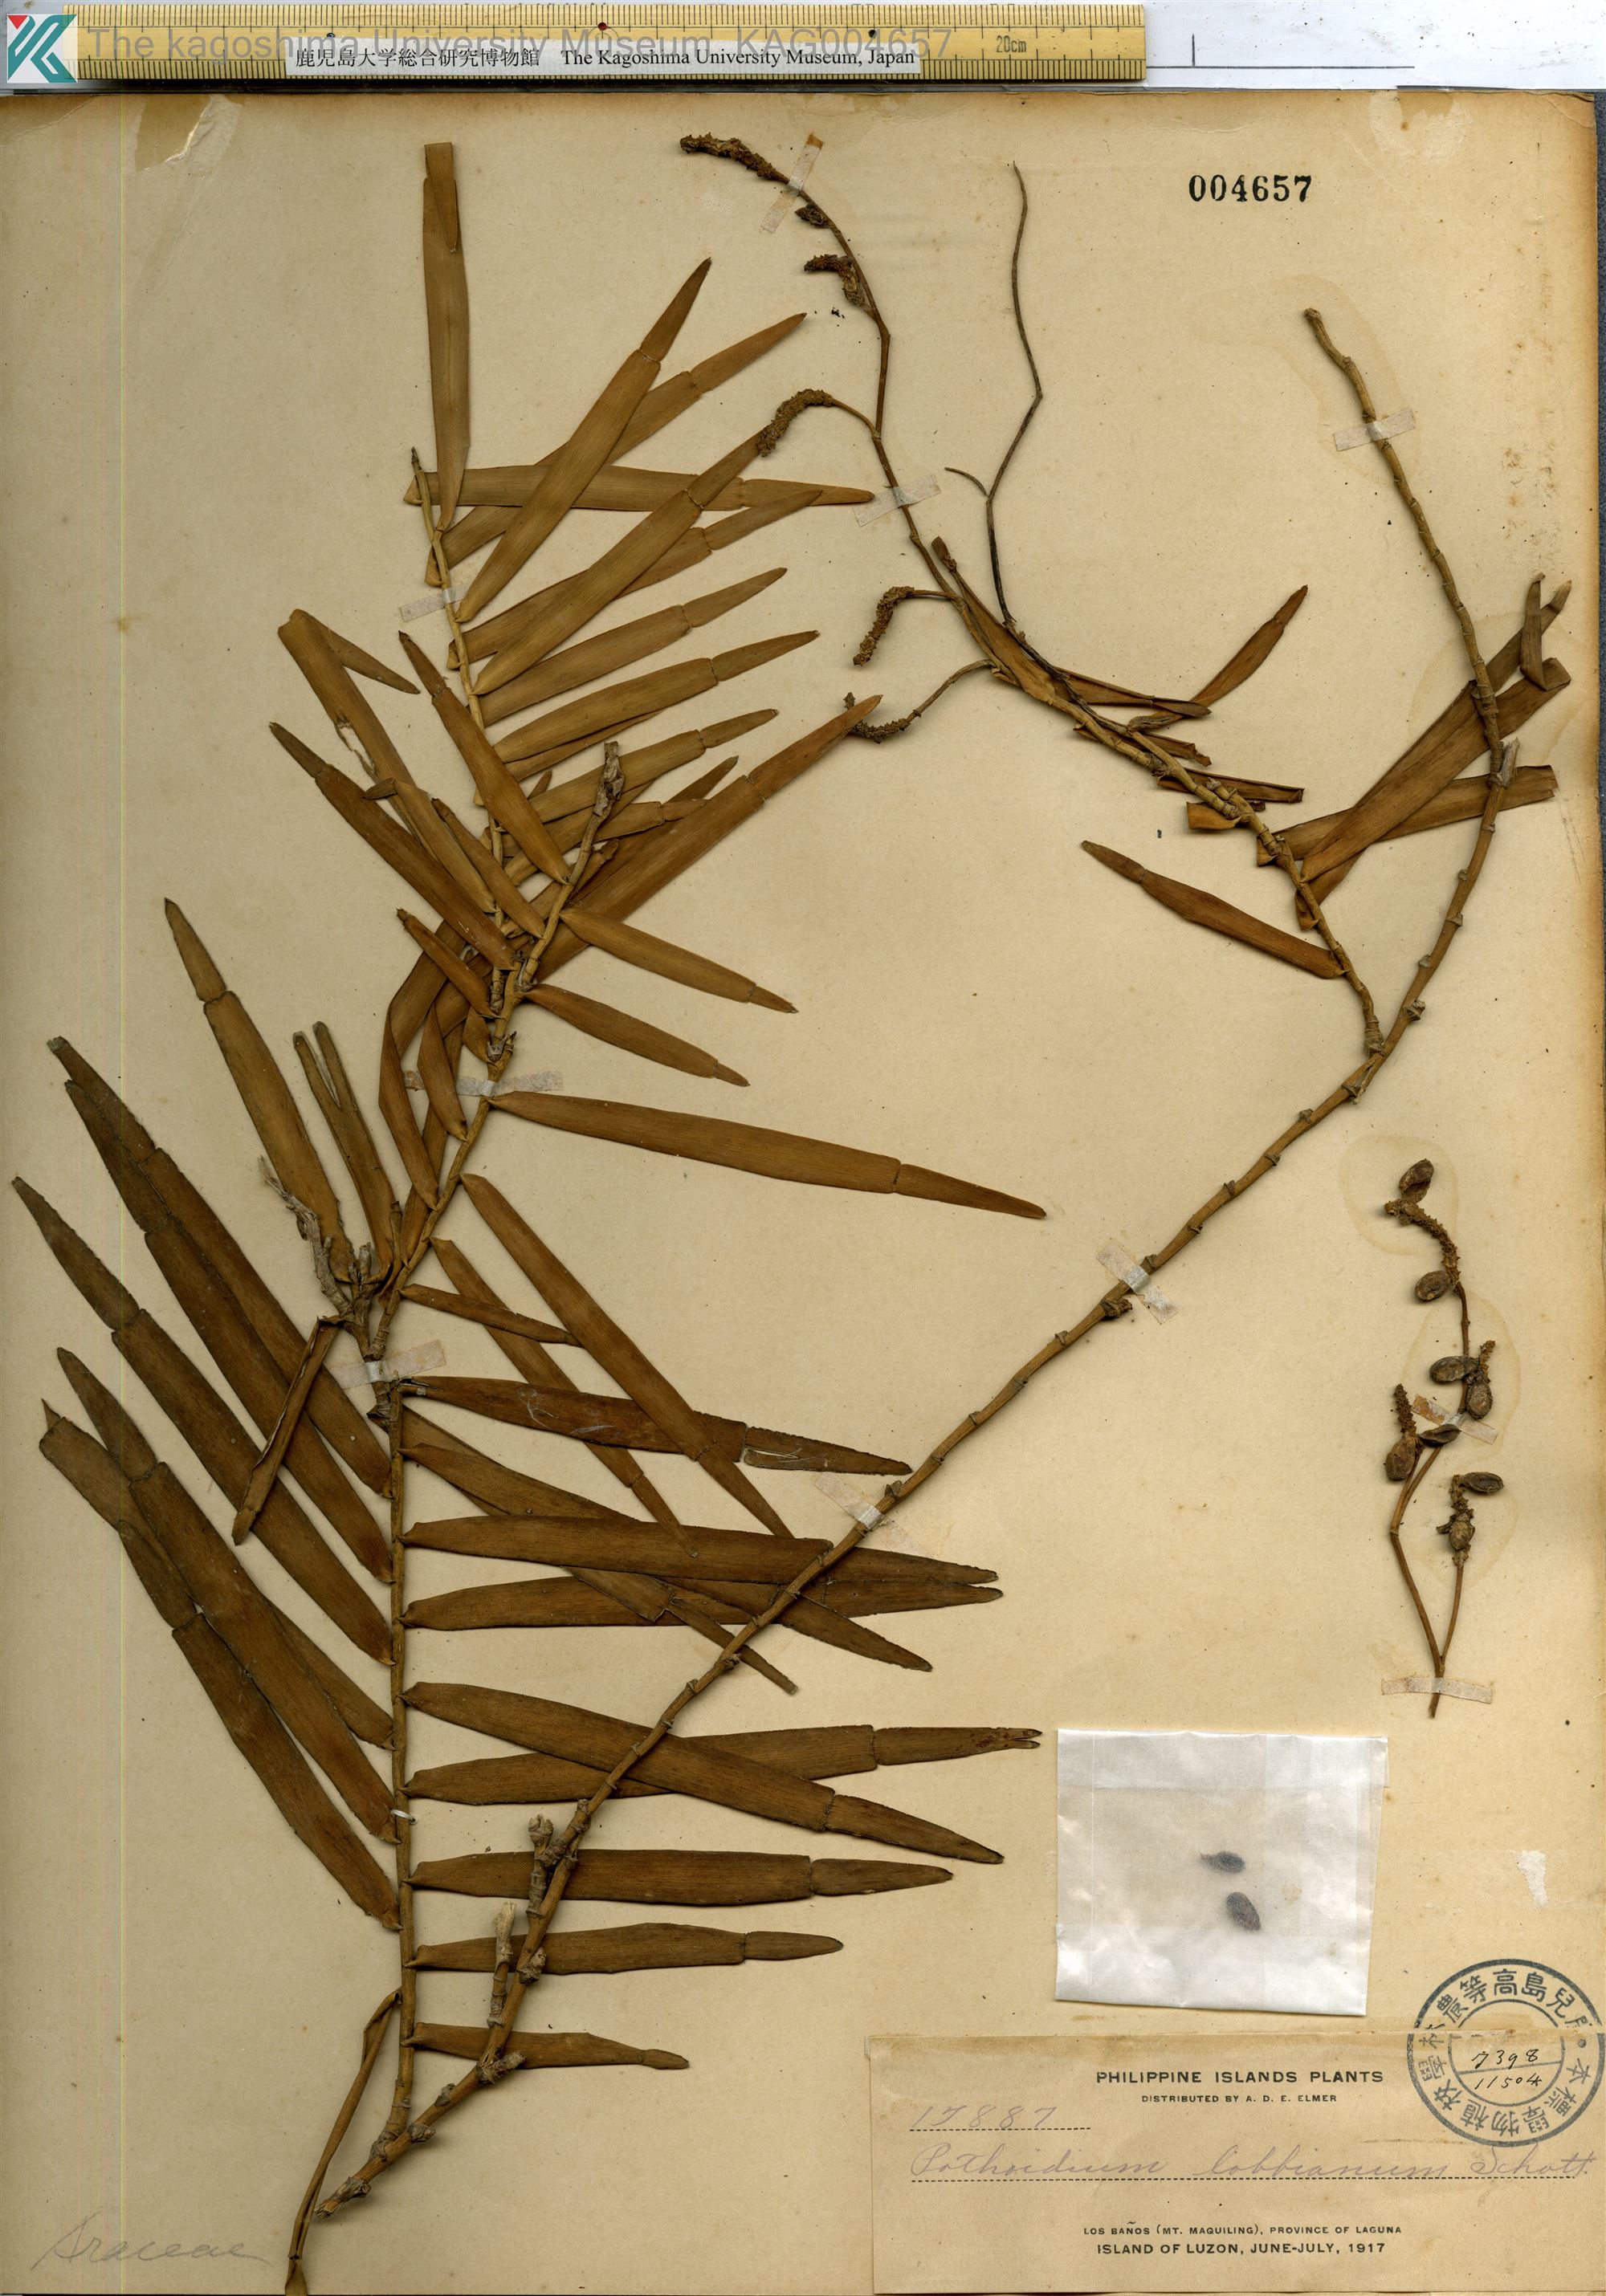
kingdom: Plantae
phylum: Tracheophyta
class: Liliopsida
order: Alismatales
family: Araceae
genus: Pothoidium
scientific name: Pothoidium lobbianum
